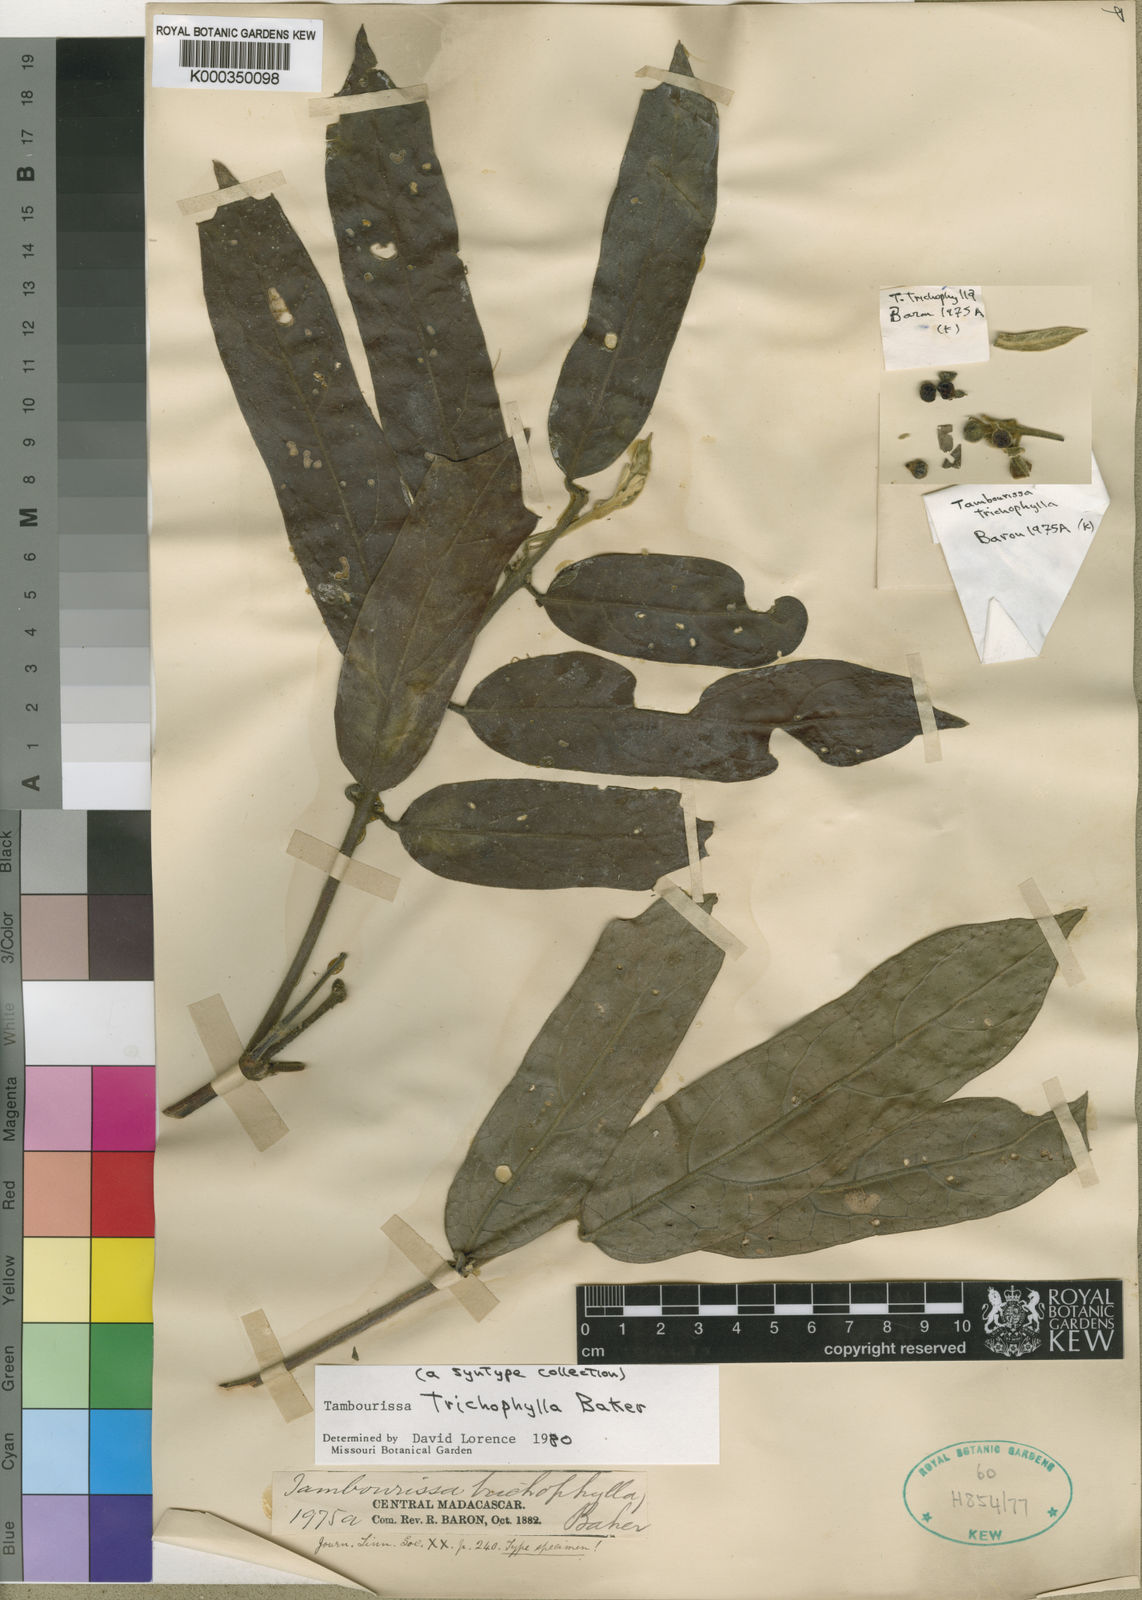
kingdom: Plantae
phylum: Tracheophyta
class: Magnoliopsida
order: Laurales
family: Monimiaceae
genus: Tambourissa
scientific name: Tambourissa trichophylla
